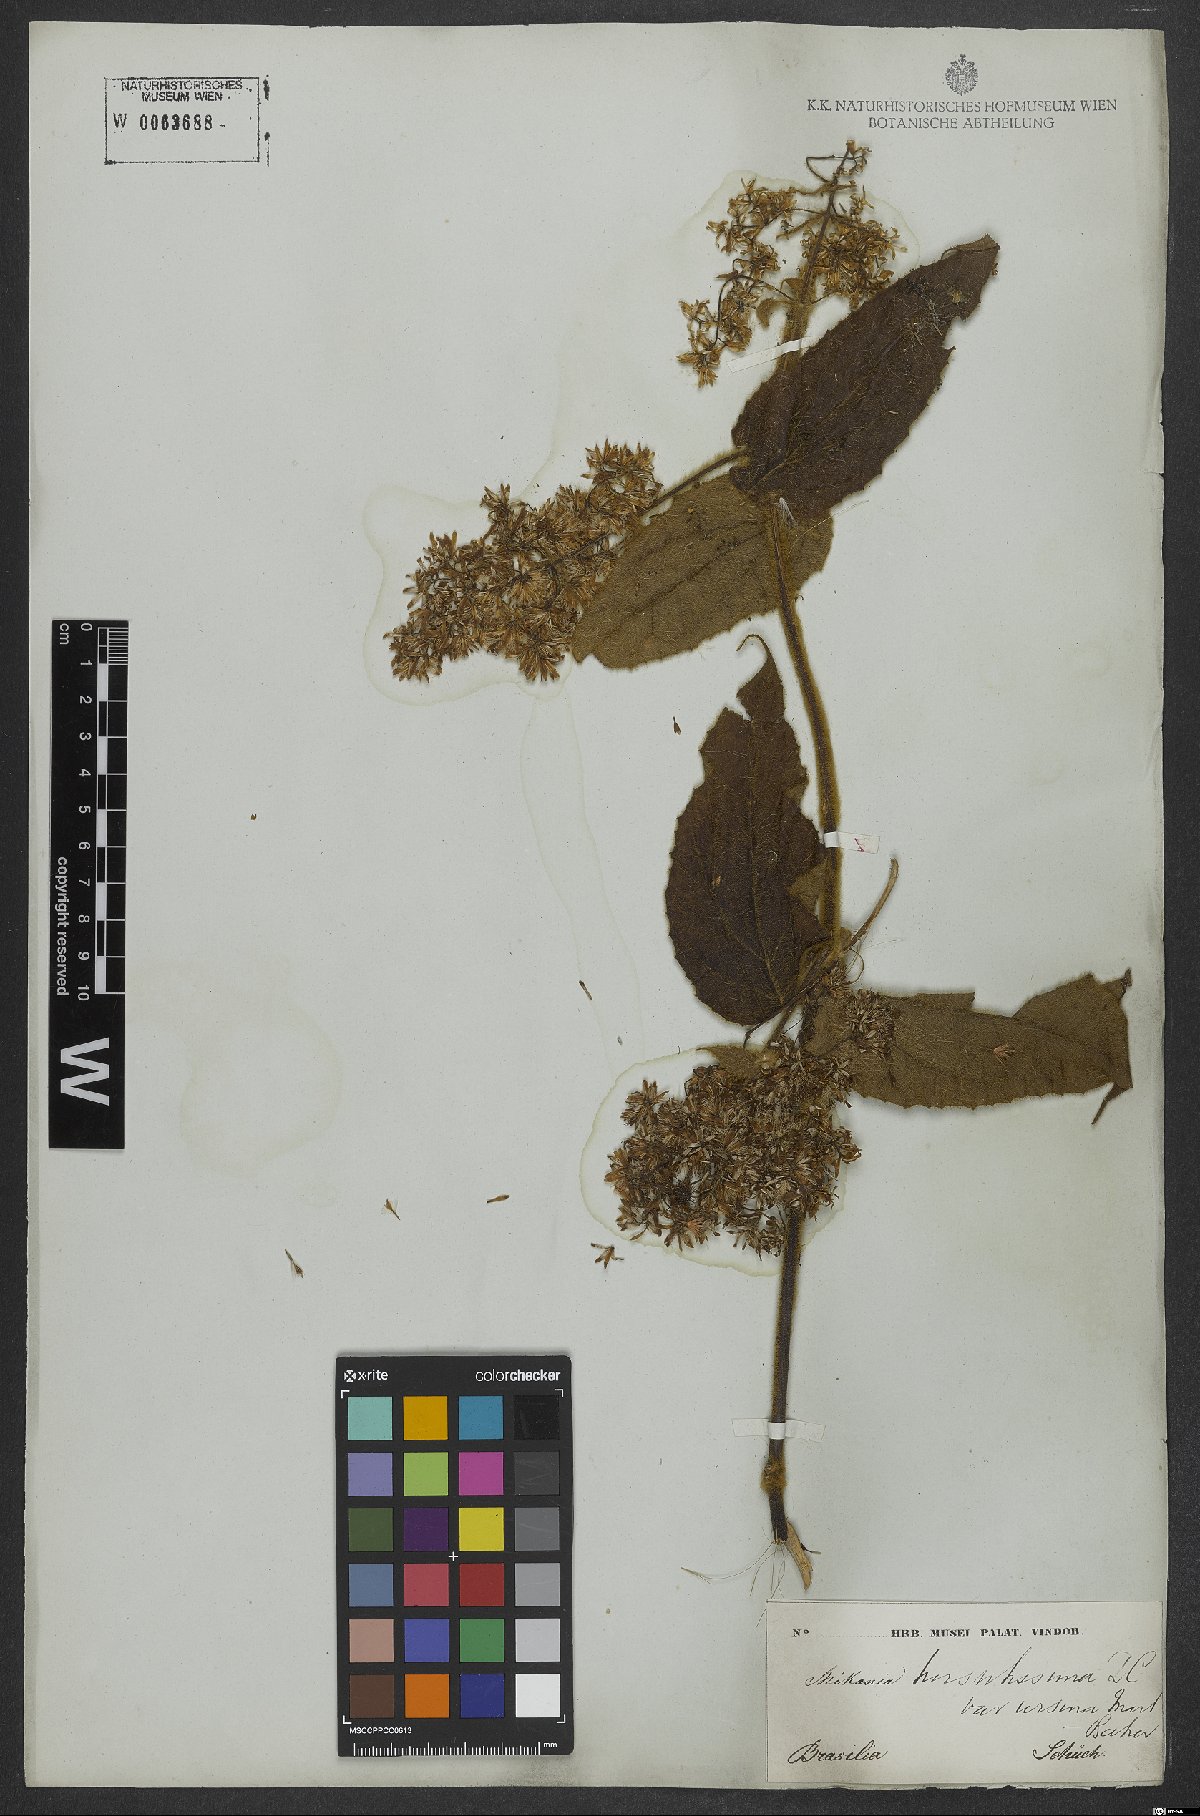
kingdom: Plantae
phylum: Tracheophyta
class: Magnoliopsida
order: Asterales
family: Asteraceae
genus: Mikania
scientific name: Mikania banisteriae
